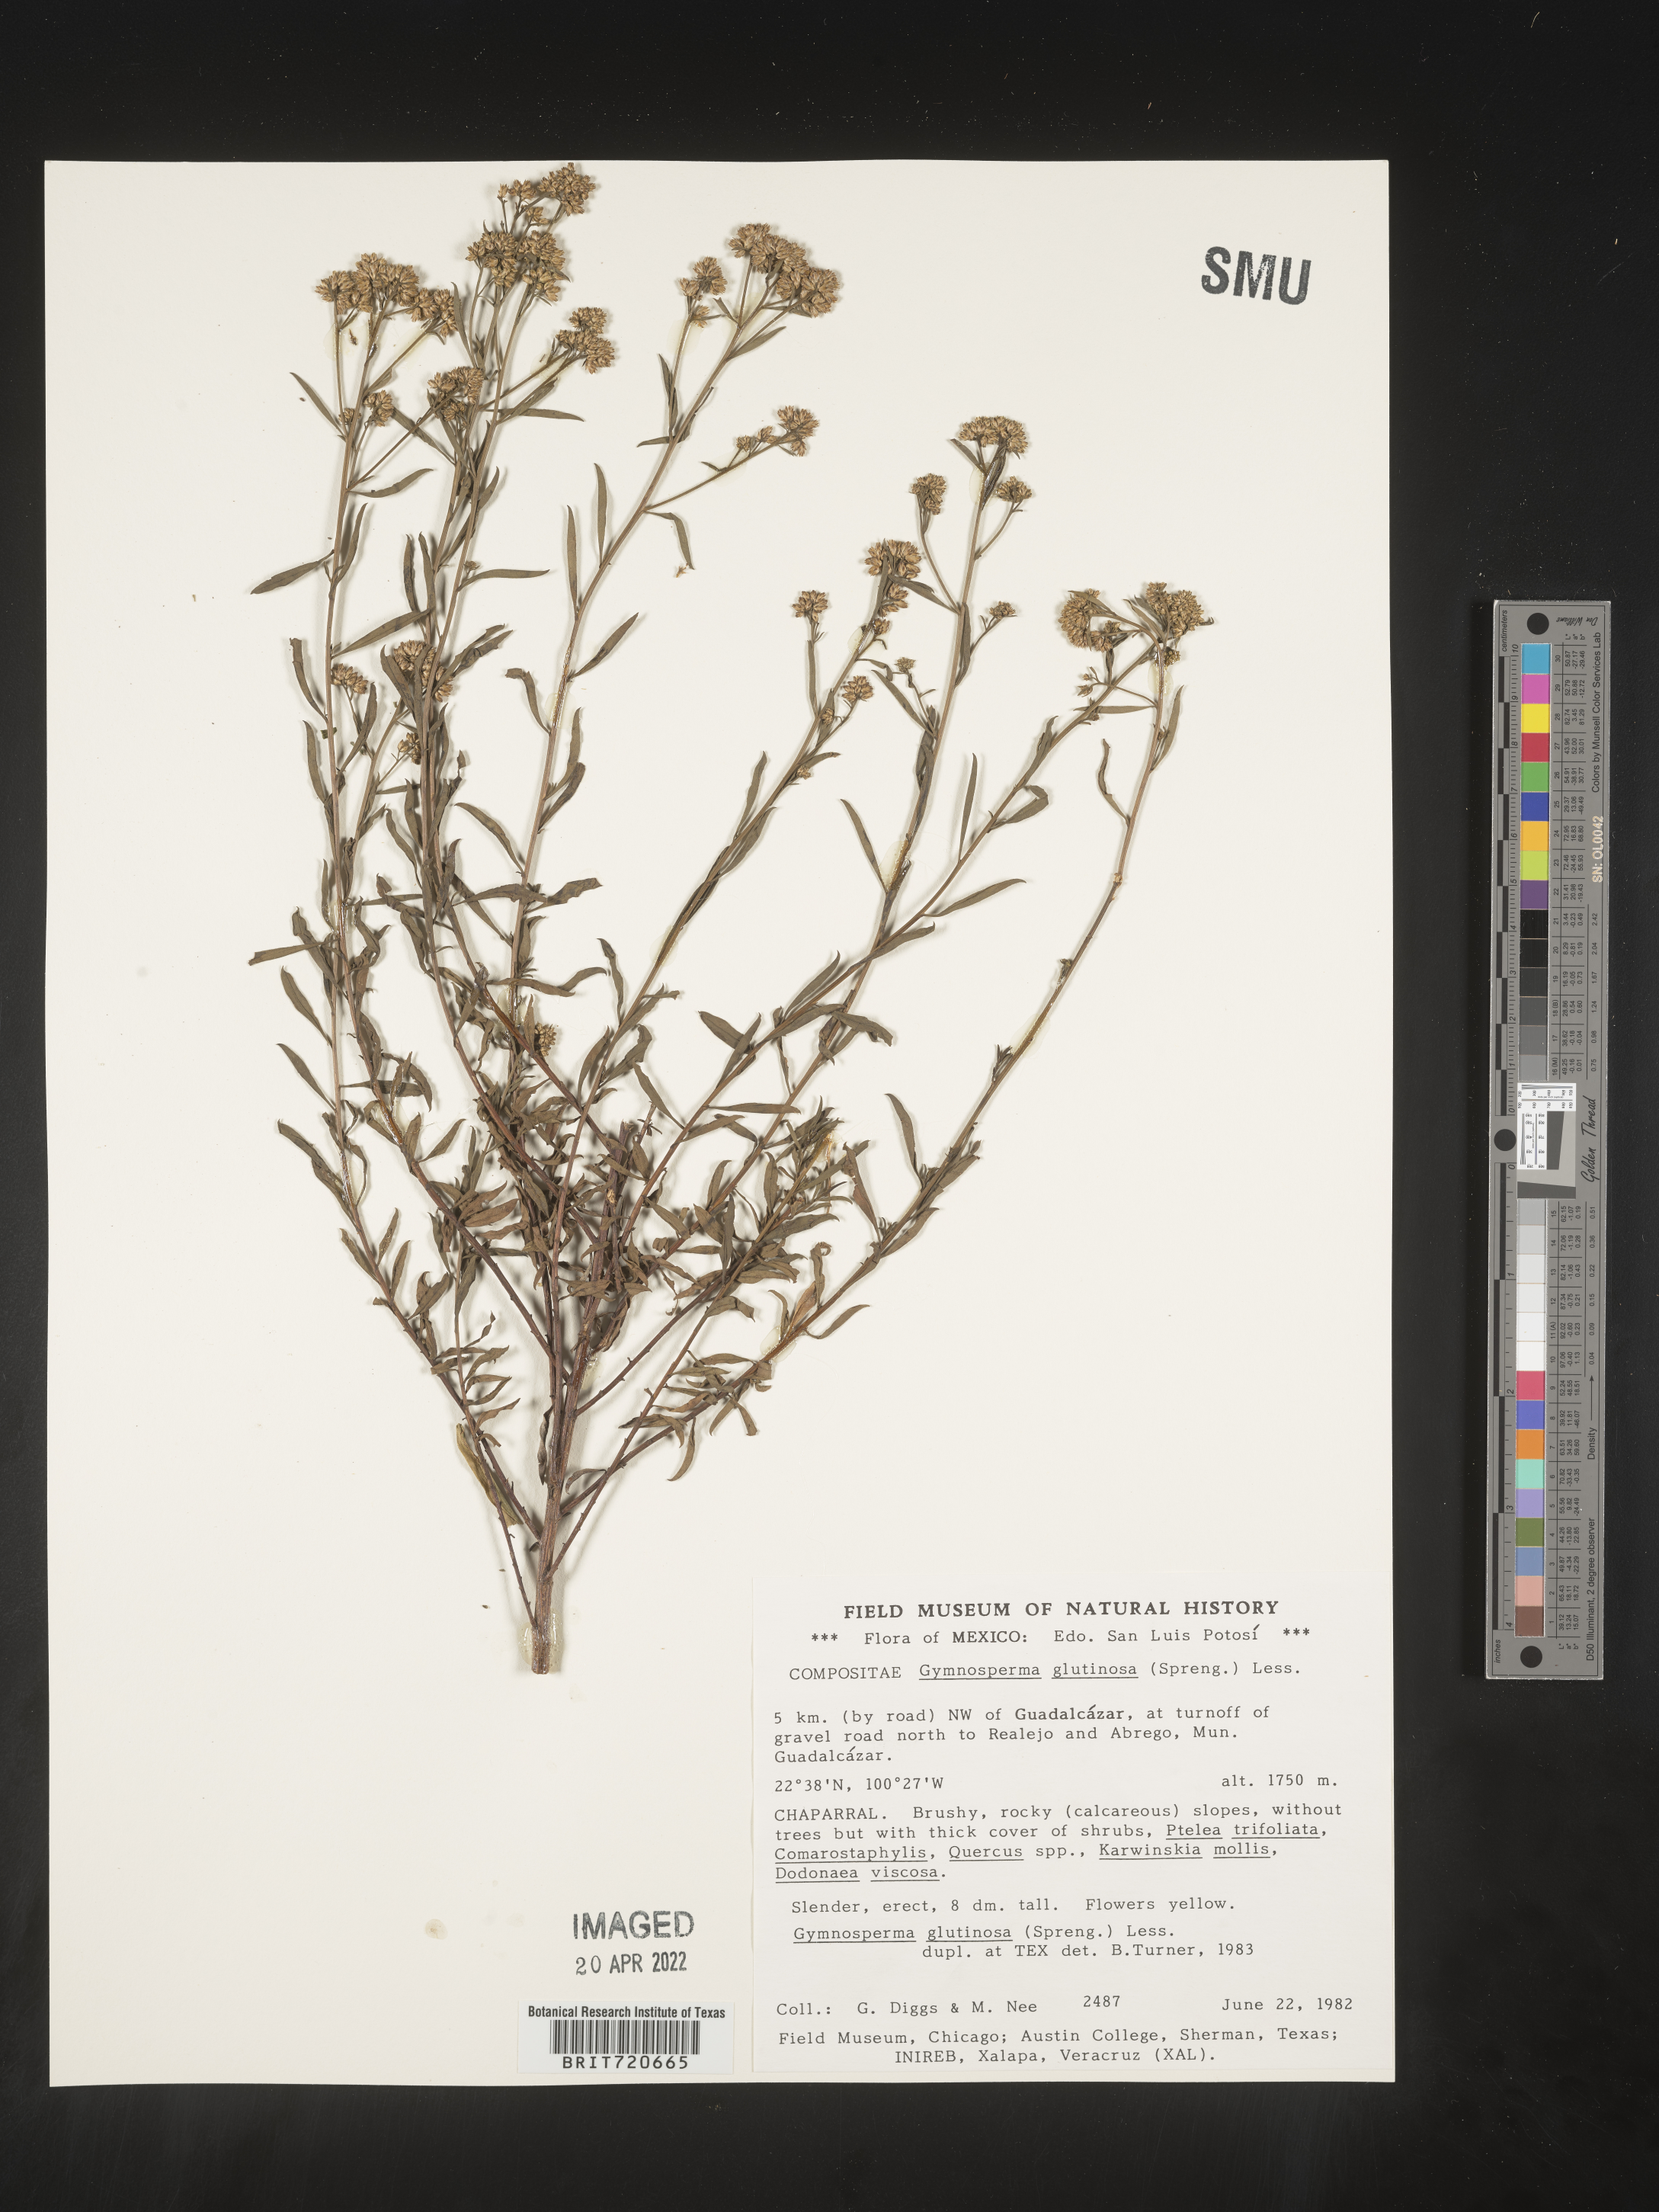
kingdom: Plantae
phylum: Tracheophyta
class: Magnoliopsida
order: Asterales
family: Asteraceae
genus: Gymnosperma
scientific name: Gymnosperma glutinosum
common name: Gumhead
